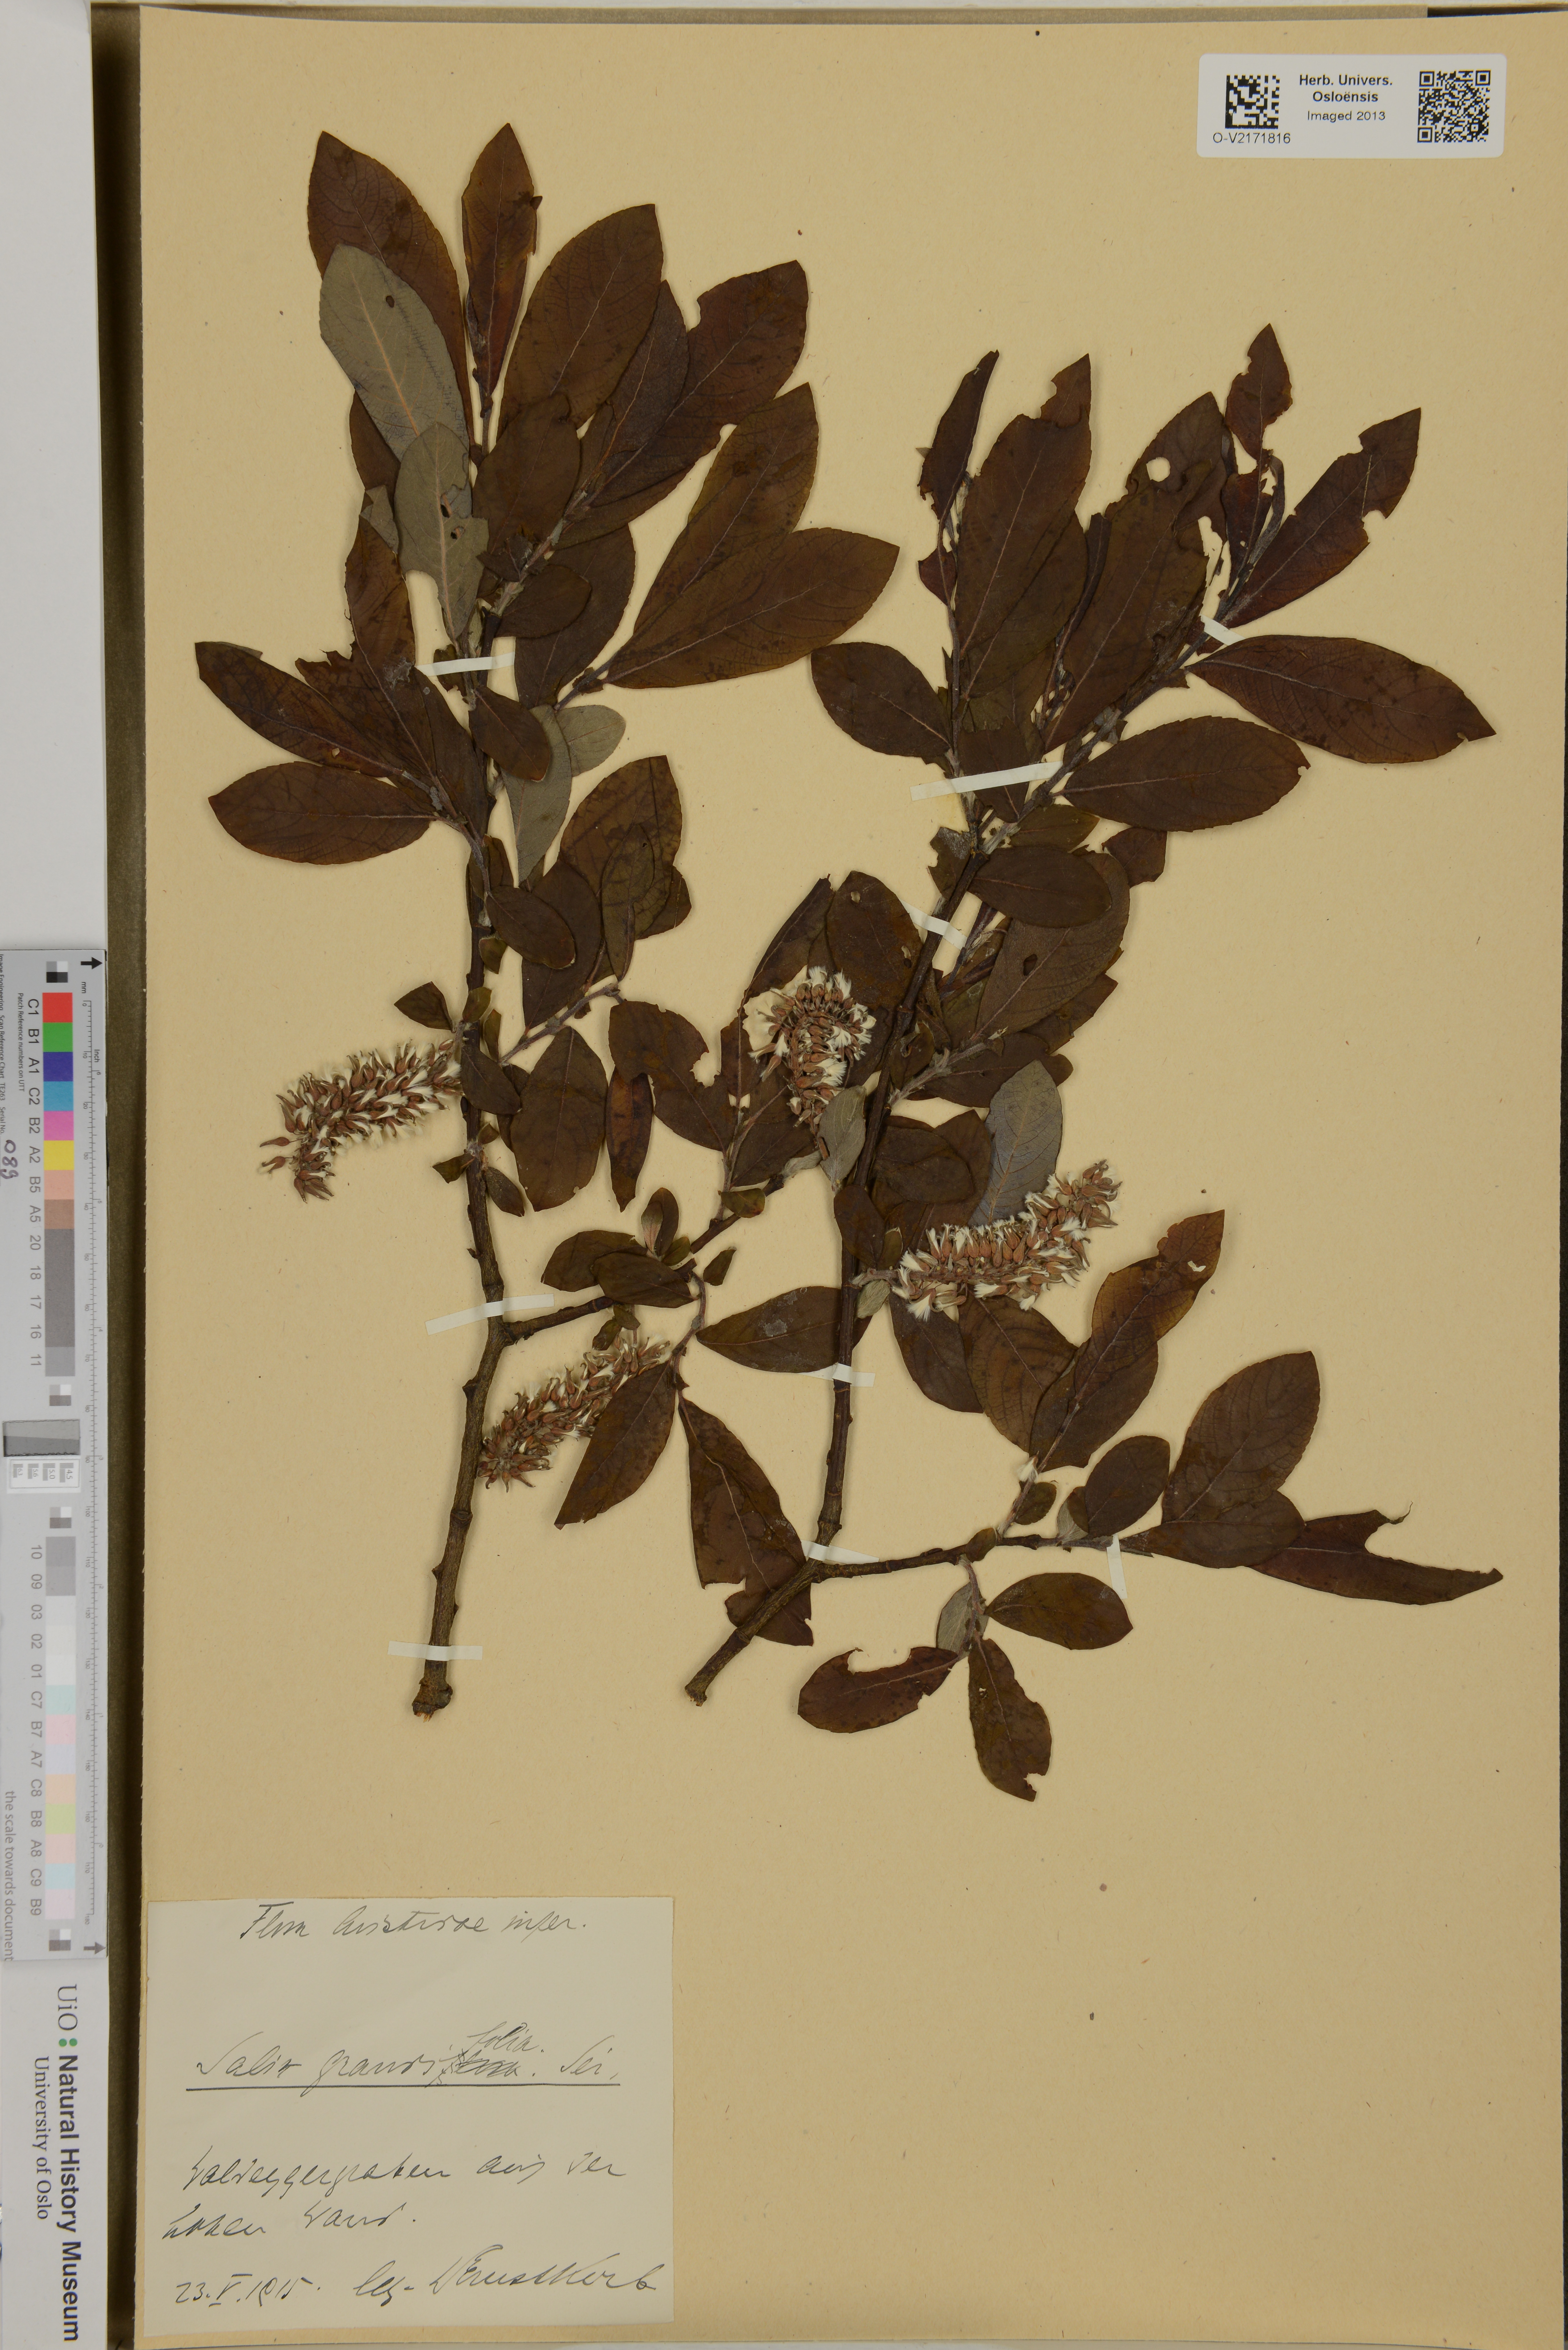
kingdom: Plantae
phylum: Tracheophyta
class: Magnoliopsida
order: Malpighiales
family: Salicaceae
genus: Salix
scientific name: Salix
